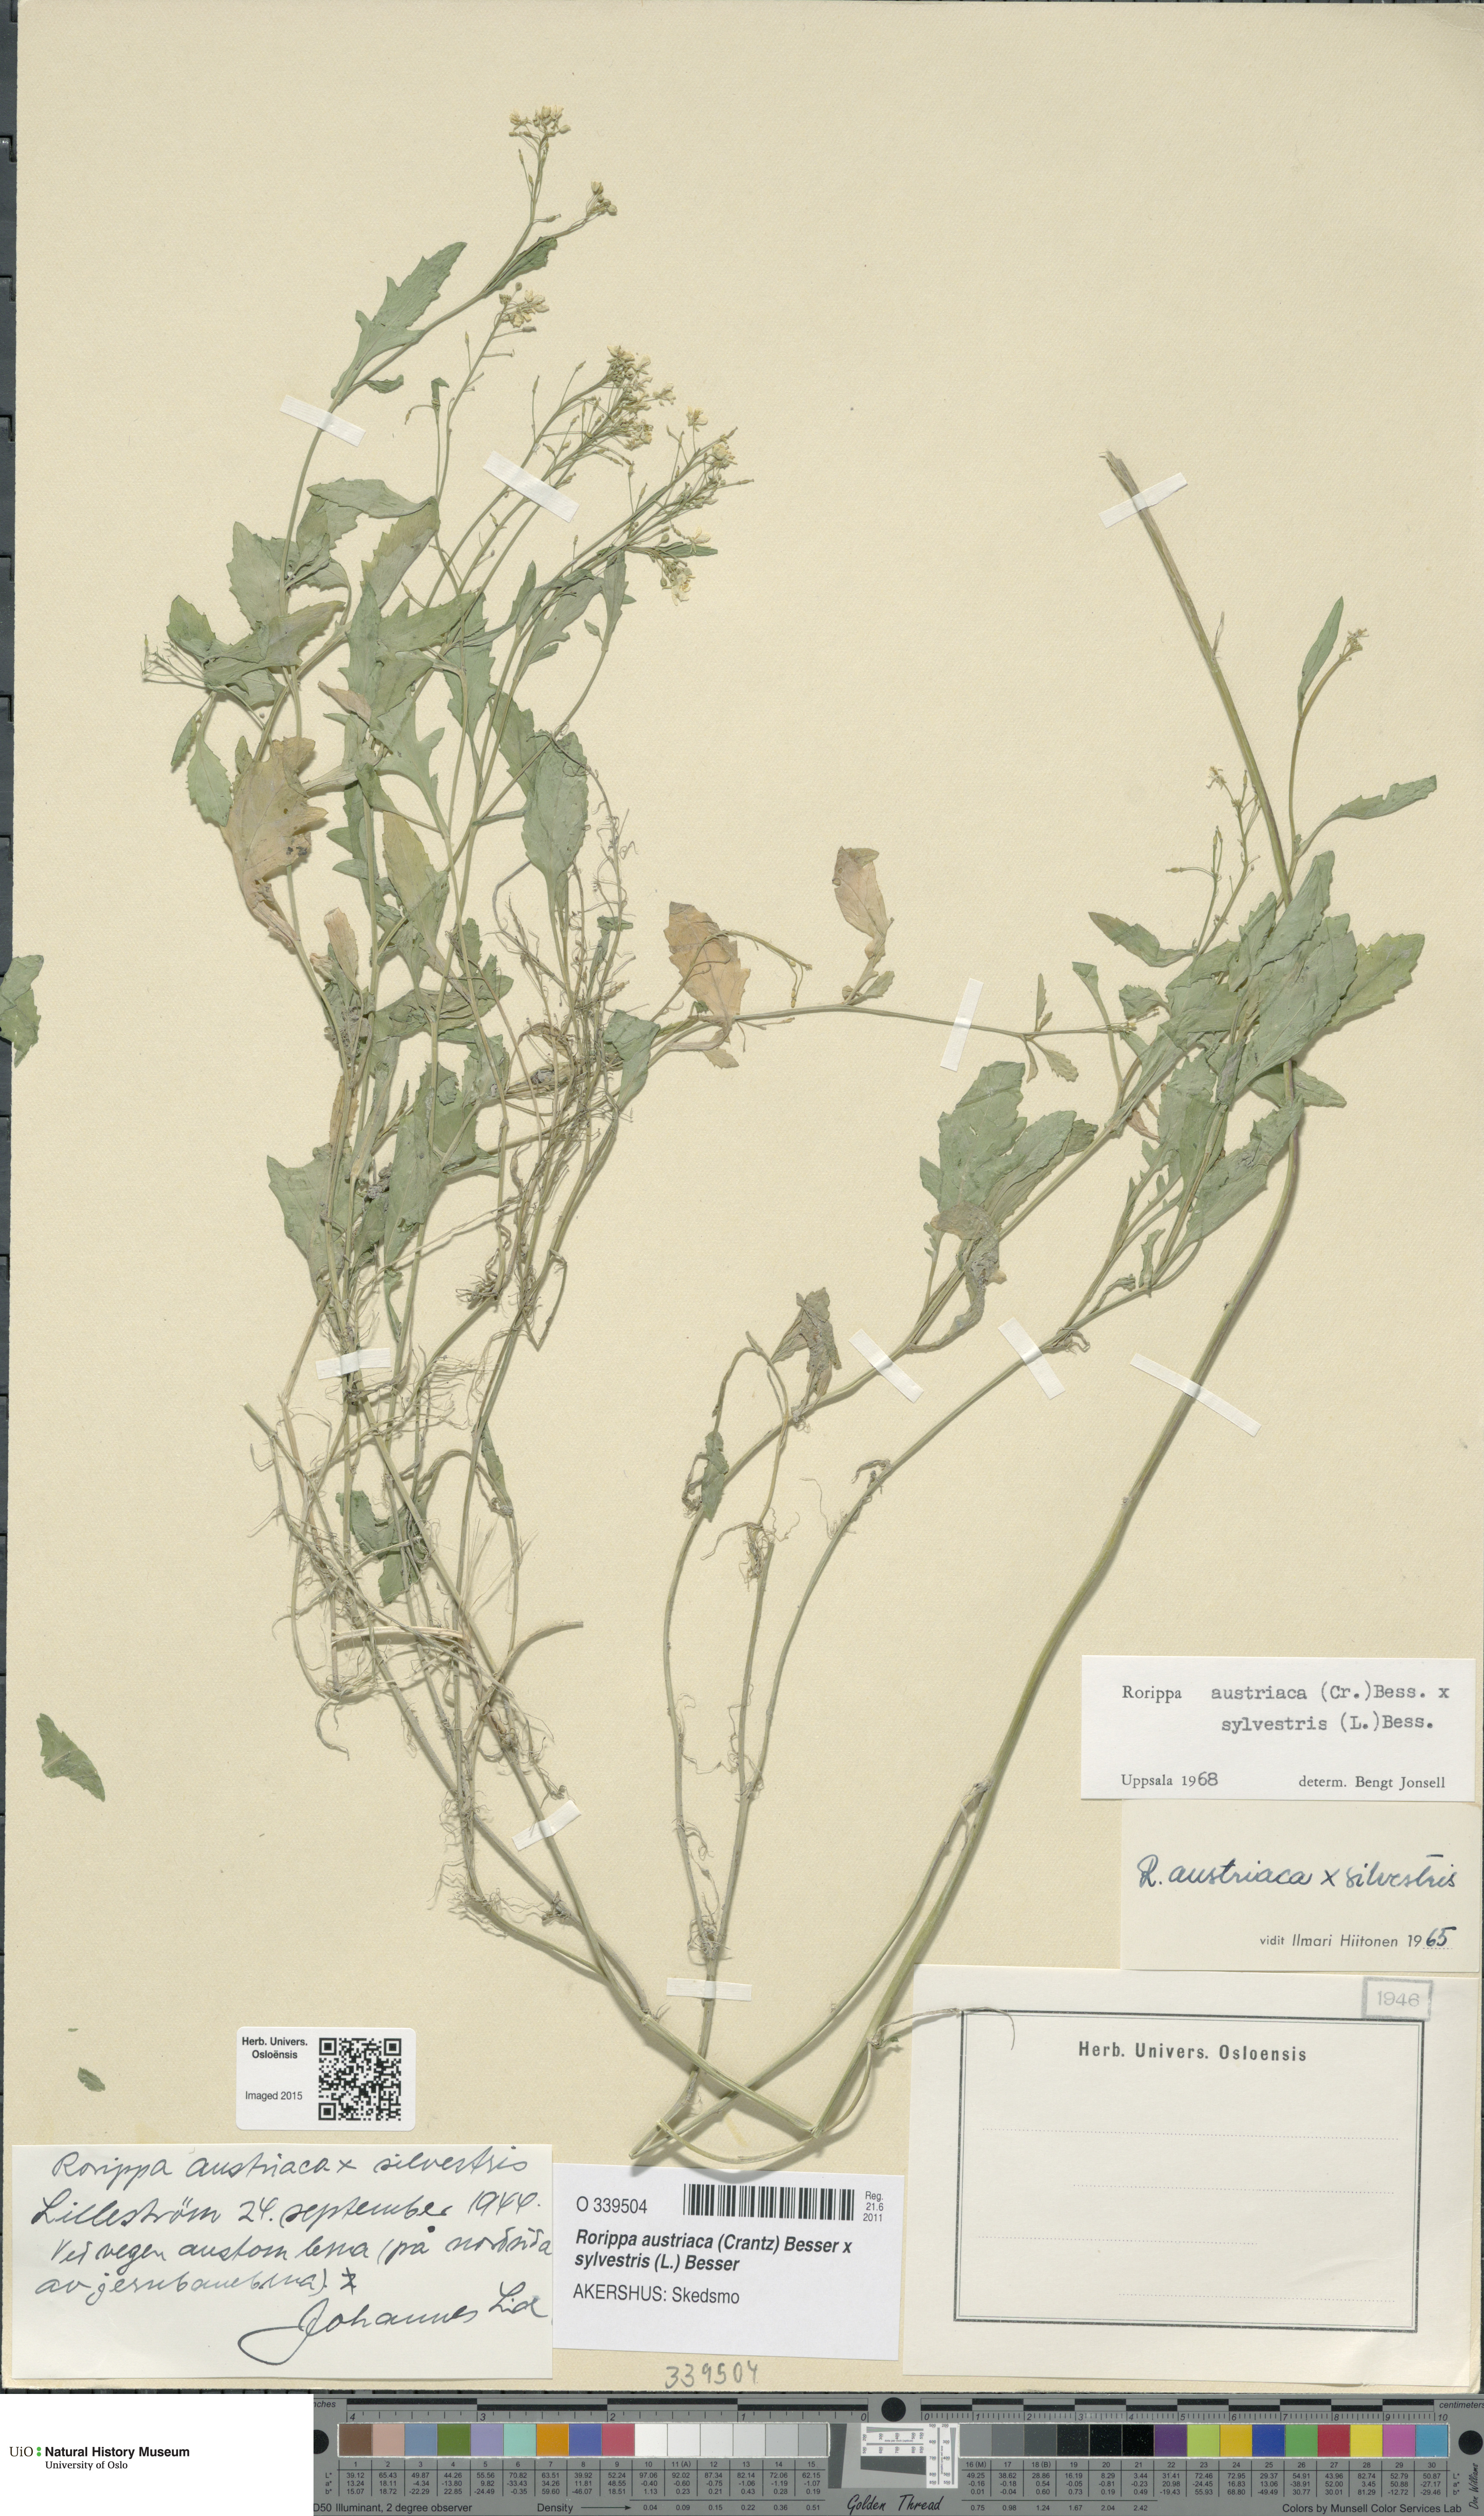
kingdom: Plantae
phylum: Tracheophyta
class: Magnoliopsida
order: Brassicales
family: Brassicaceae
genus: Rorippa
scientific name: Rorippa
